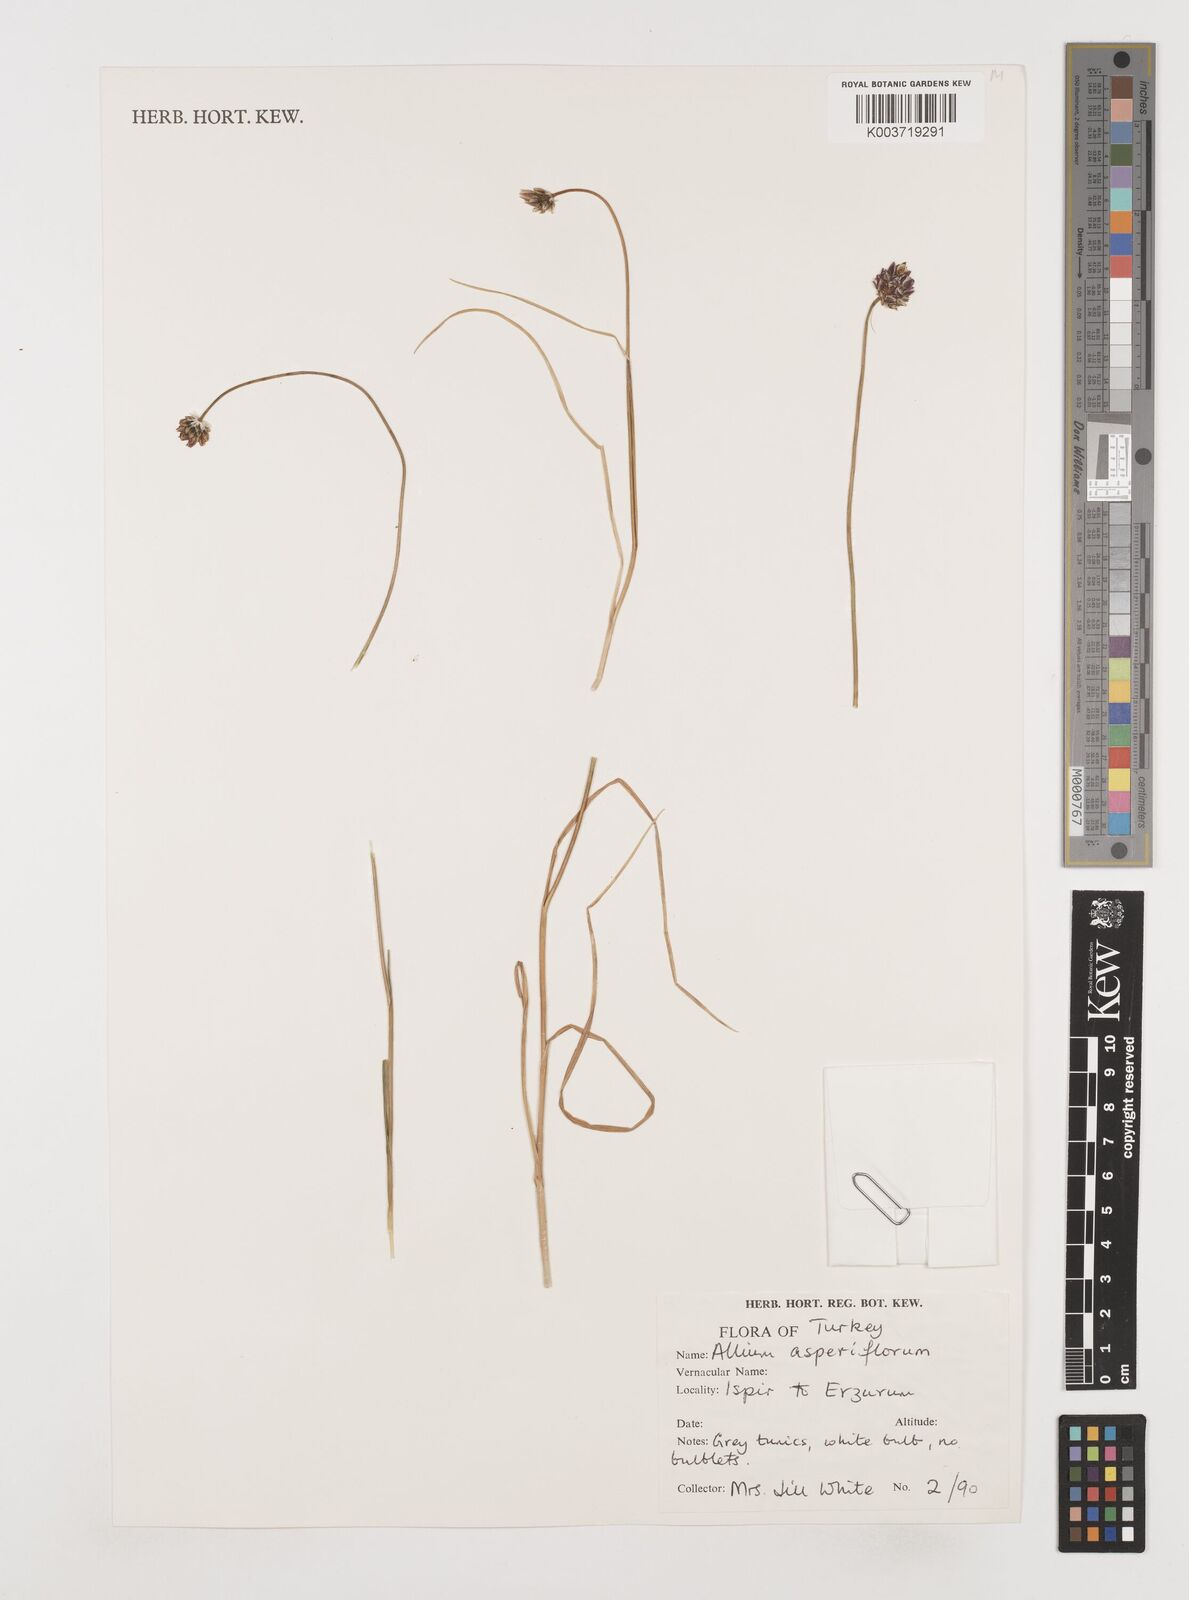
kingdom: Plantae
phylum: Tracheophyta
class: Liliopsida
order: Asparagales
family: Amaryllidaceae
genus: Allium
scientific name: Allium asperiflorum
